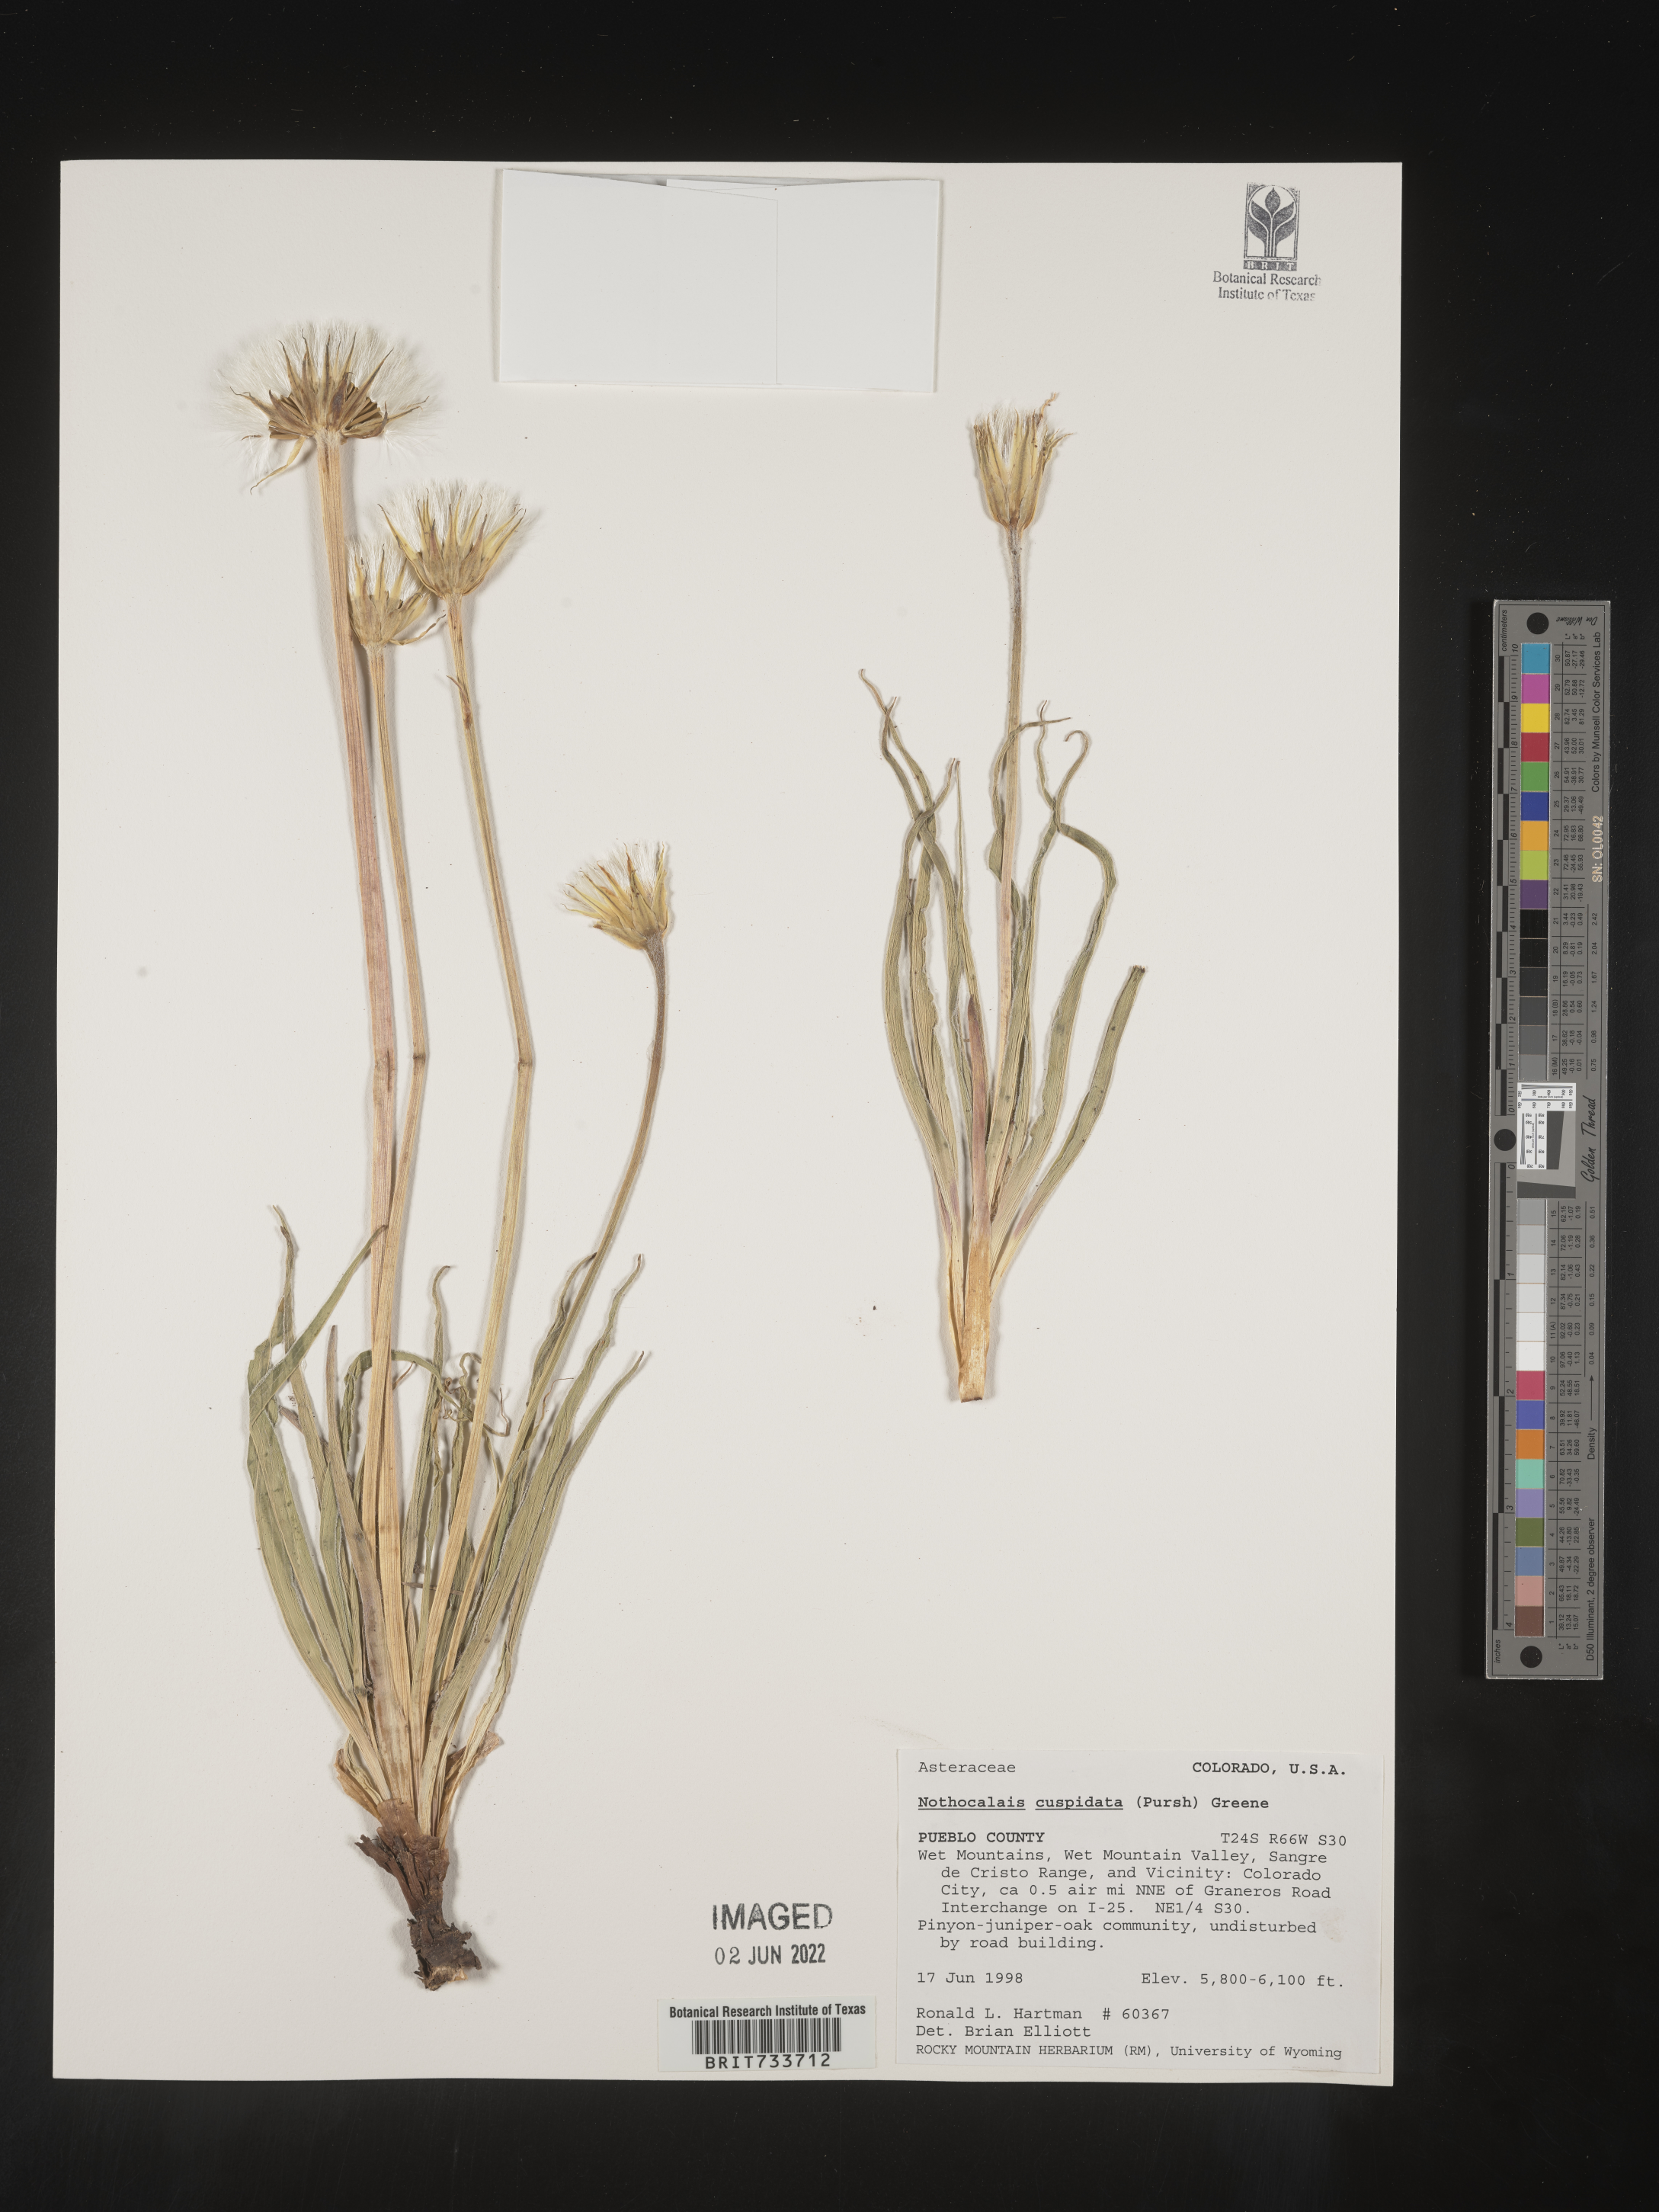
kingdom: Plantae
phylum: Tracheophyta
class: Magnoliopsida
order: Asterales
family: Asteraceae
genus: Microseris
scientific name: Microseris
